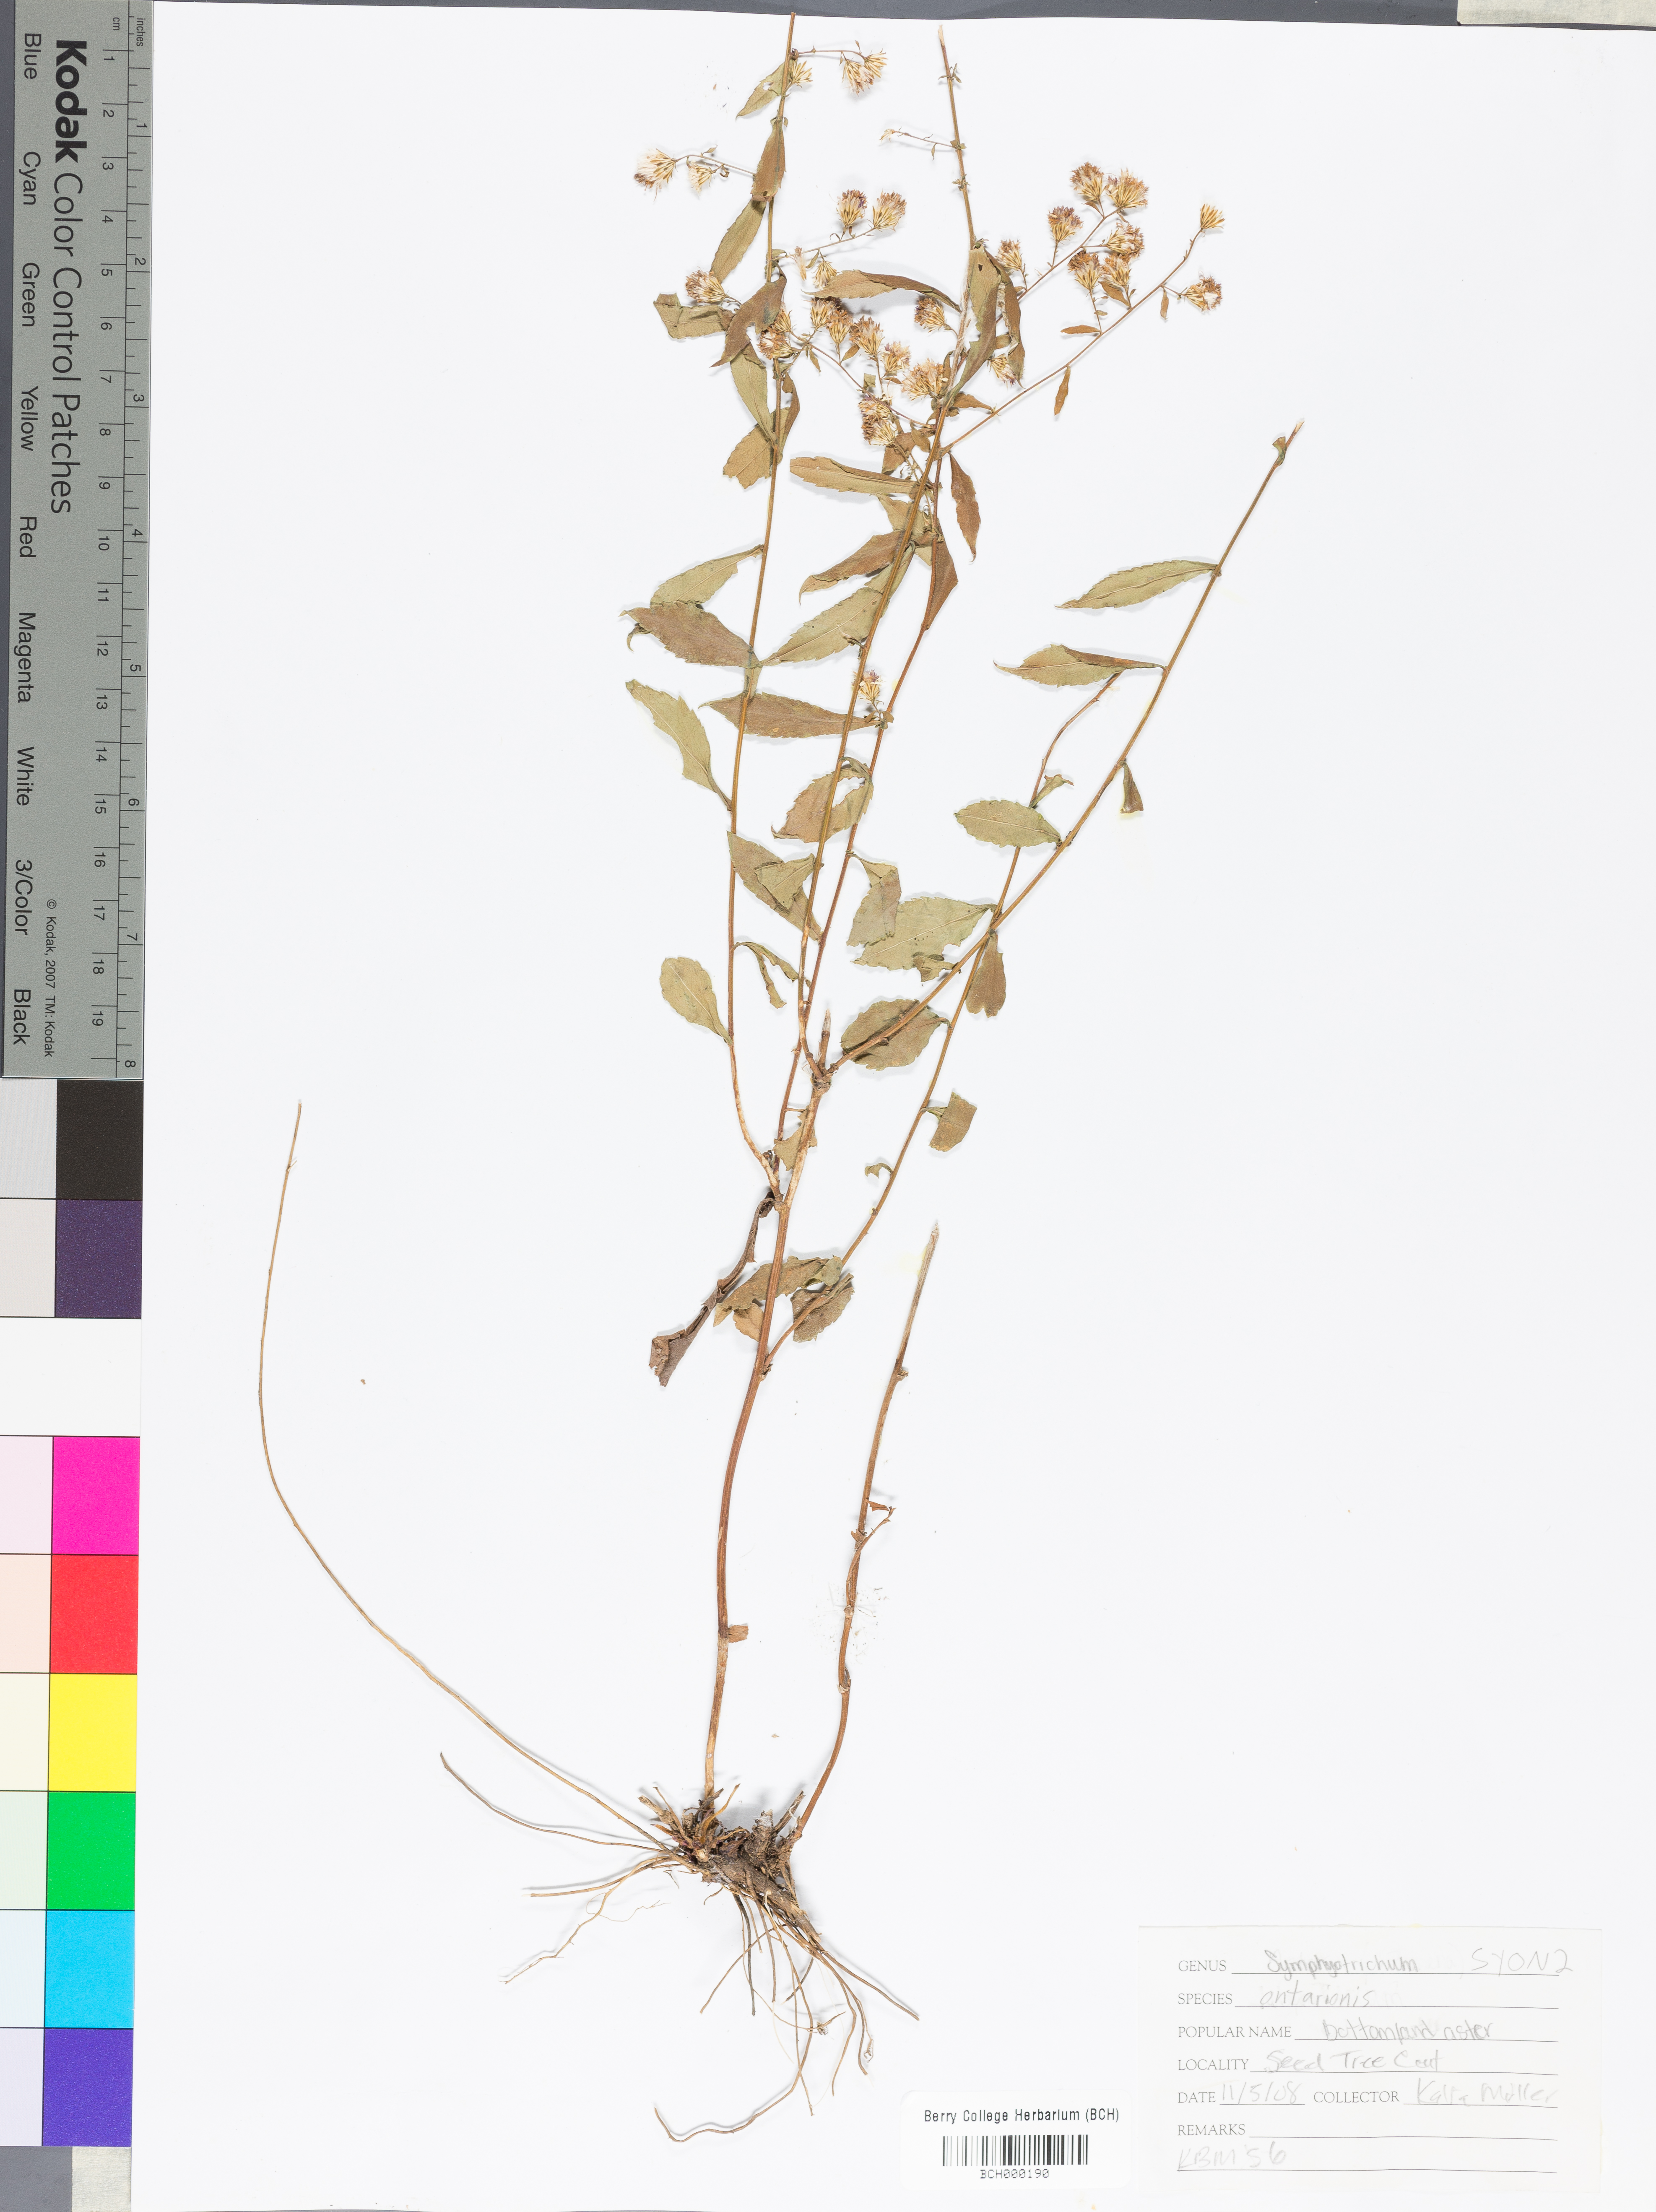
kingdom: Plantae
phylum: Tracheophyta
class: Magnoliopsida
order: Asterales
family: Asteraceae
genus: Symphyotrichum
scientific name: Symphyotrichum ontarionis
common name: Bottomland aster
